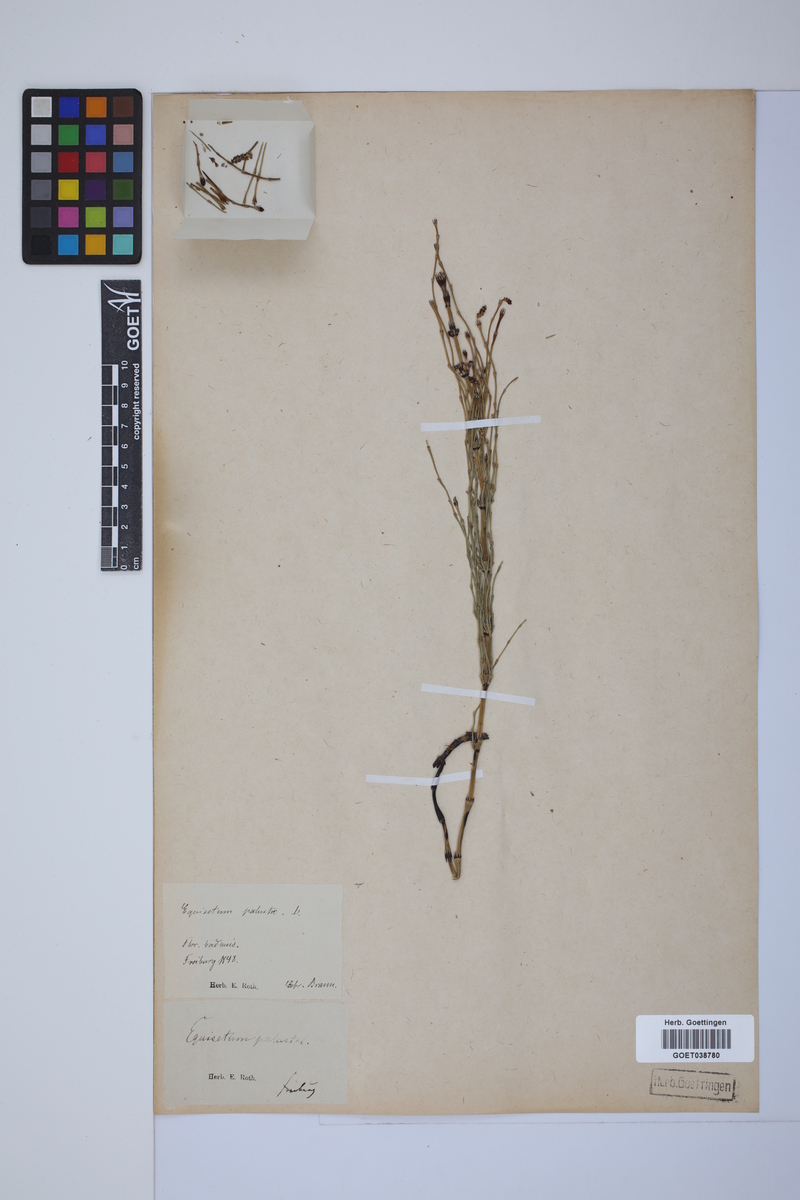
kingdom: Plantae
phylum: Tracheophyta
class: Polypodiopsida
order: Equisetales
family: Equisetaceae
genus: Equisetum
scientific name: Equisetum palustre
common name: Marsh horsetail
